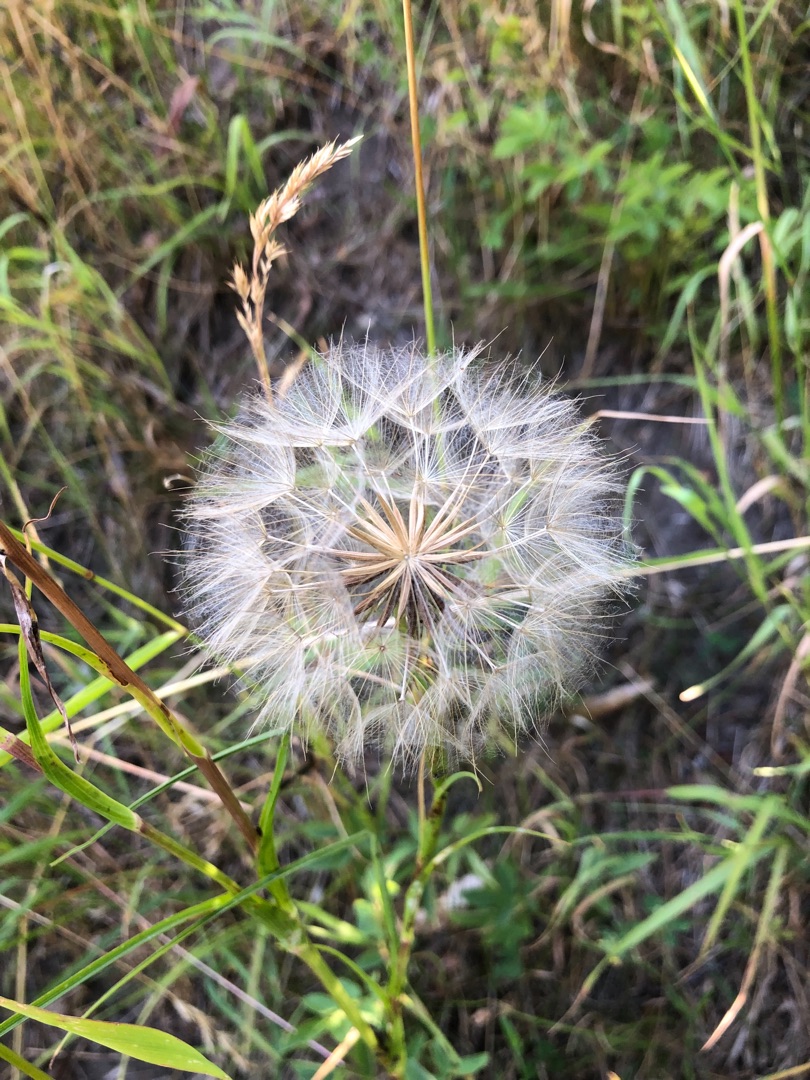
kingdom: Plantae
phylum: Tracheophyta
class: Magnoliopsida
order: Asterales
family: Asteraceae
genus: Tragopogon
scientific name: Tragopogon pratensis
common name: Gedeskæg
